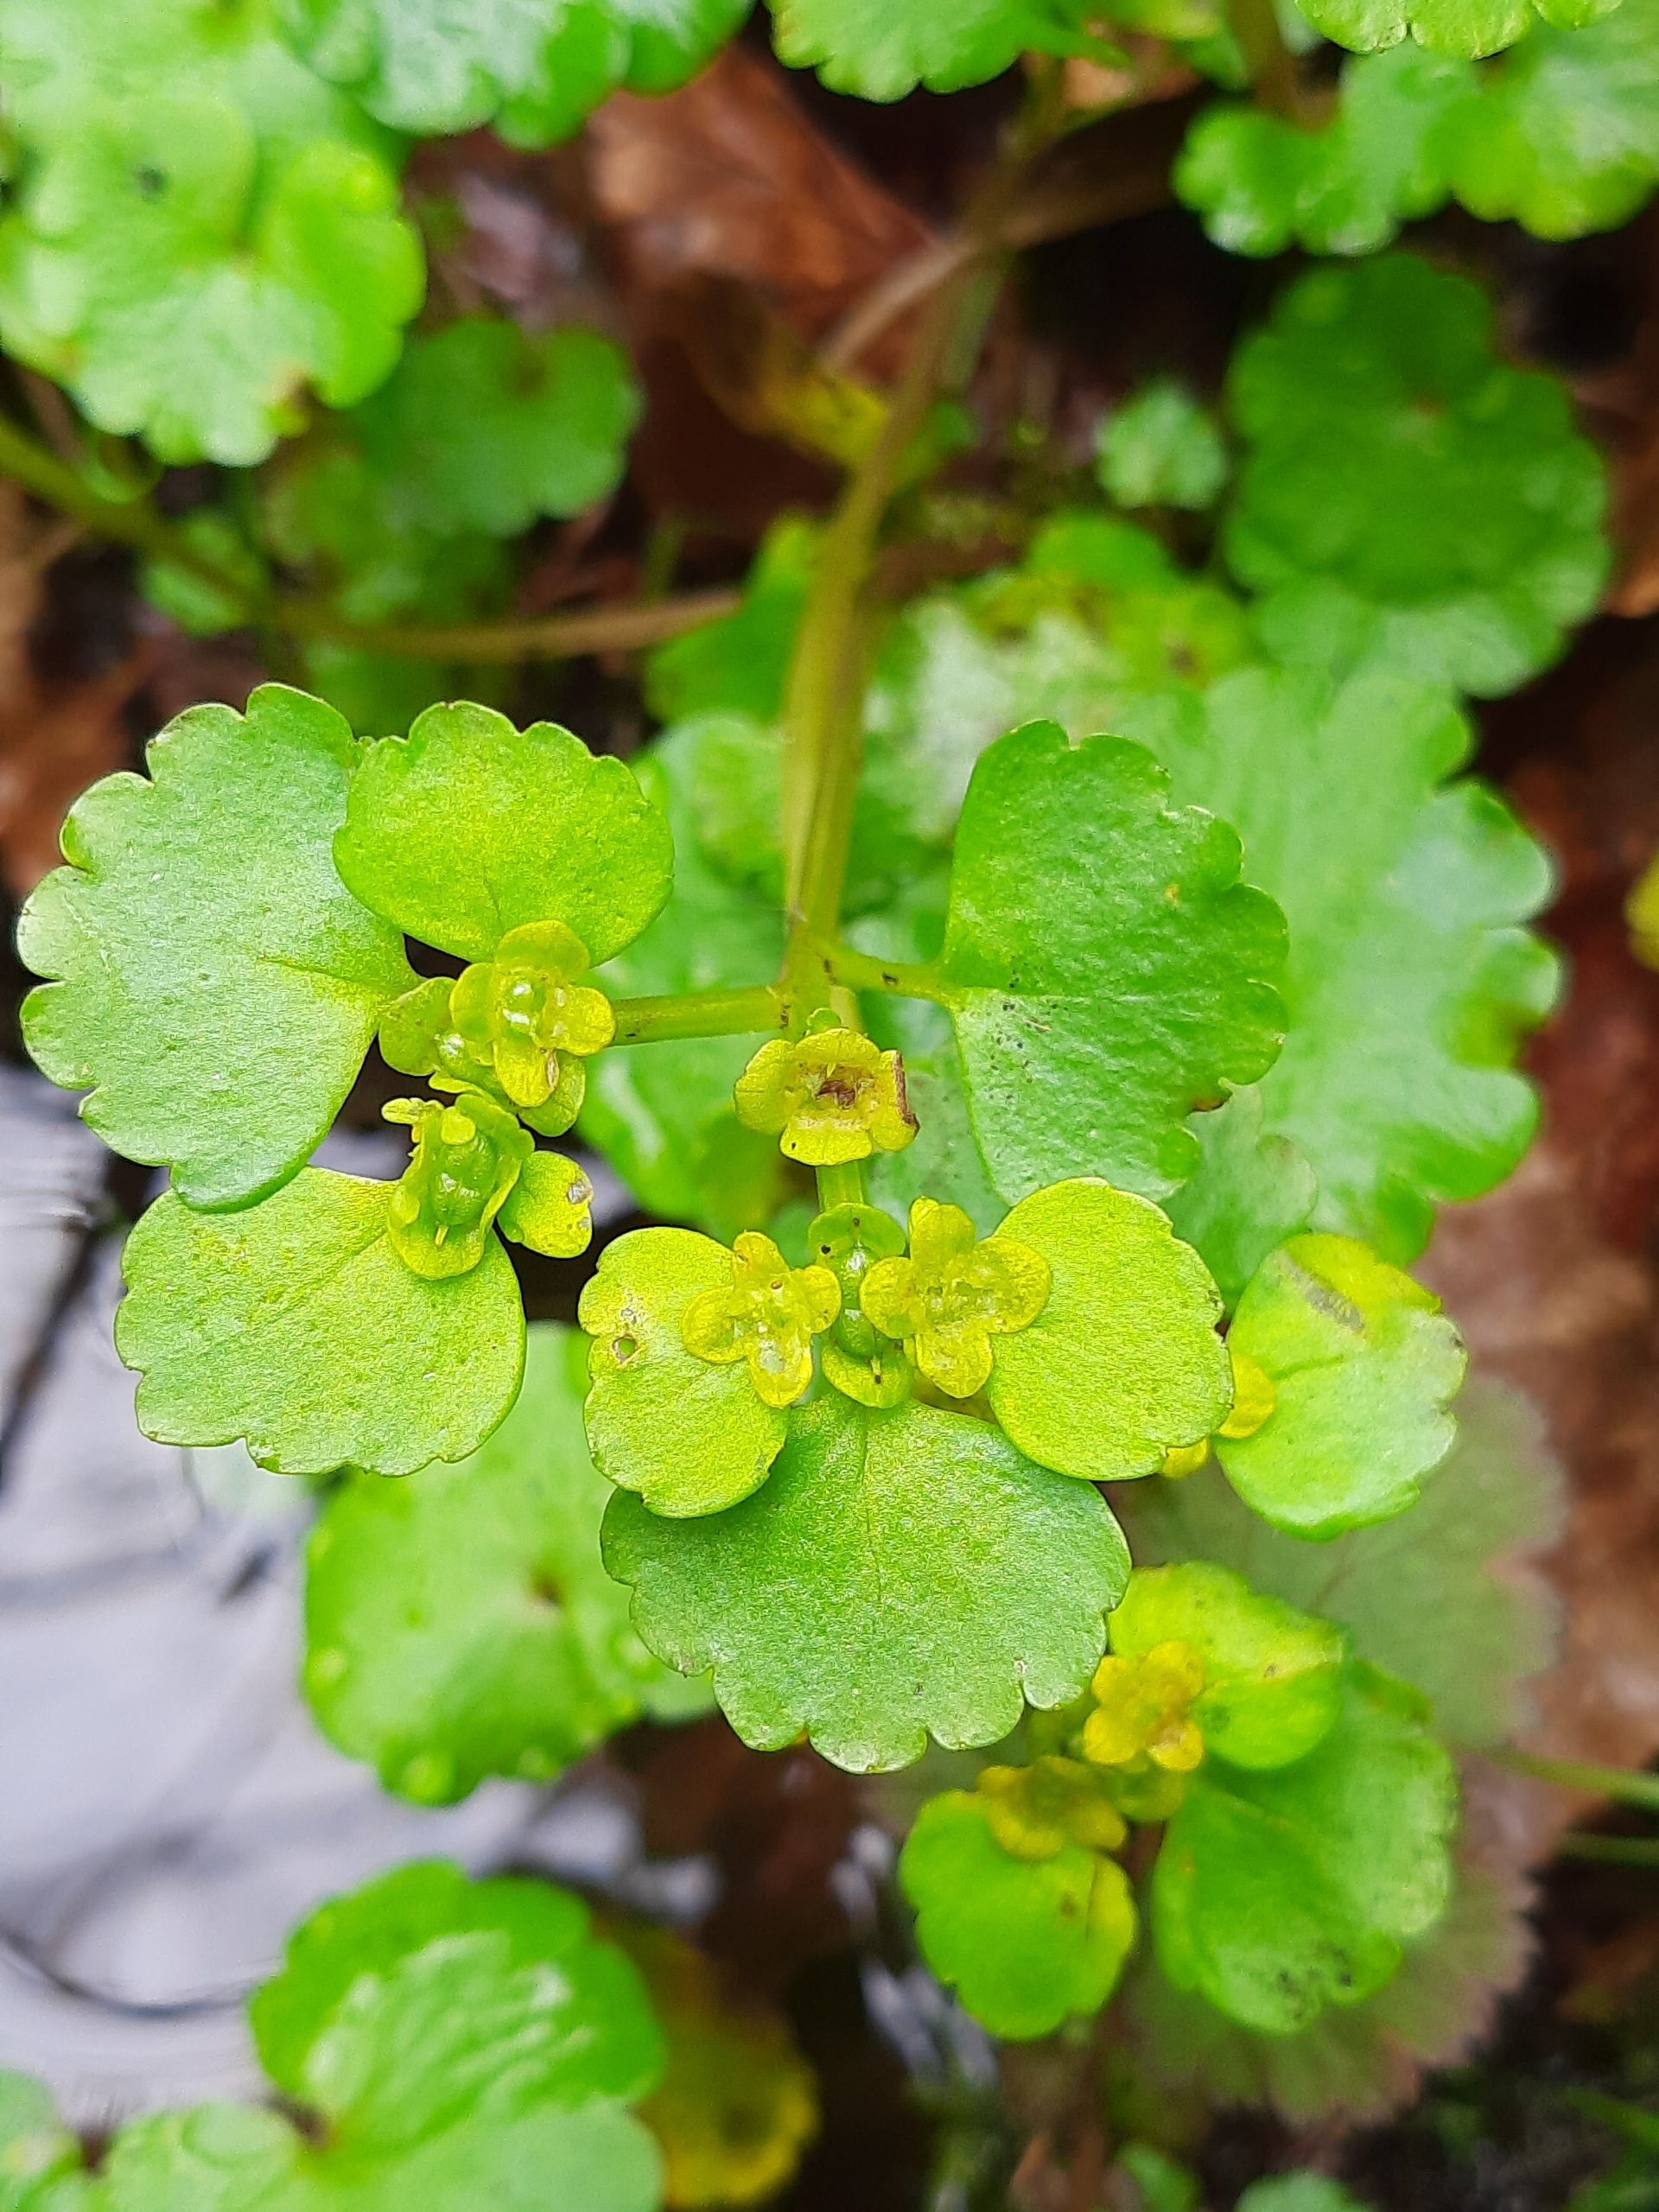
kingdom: Plantae
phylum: Tracheophyta
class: Magnoliopsida
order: Saxifragales
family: Saxifragaceae
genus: Chrysosplenium
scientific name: Chrysosplenium alternifolium
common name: Almindelig milturt
